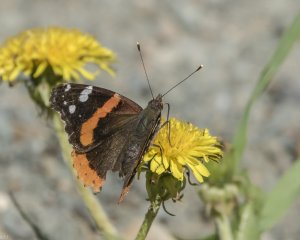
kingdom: Animalia
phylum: Arthropoda
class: Insecta
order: Lepidoptera
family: Nymphalidae
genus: Vanessa
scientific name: Vanessa atalanta
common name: Red Admiral
